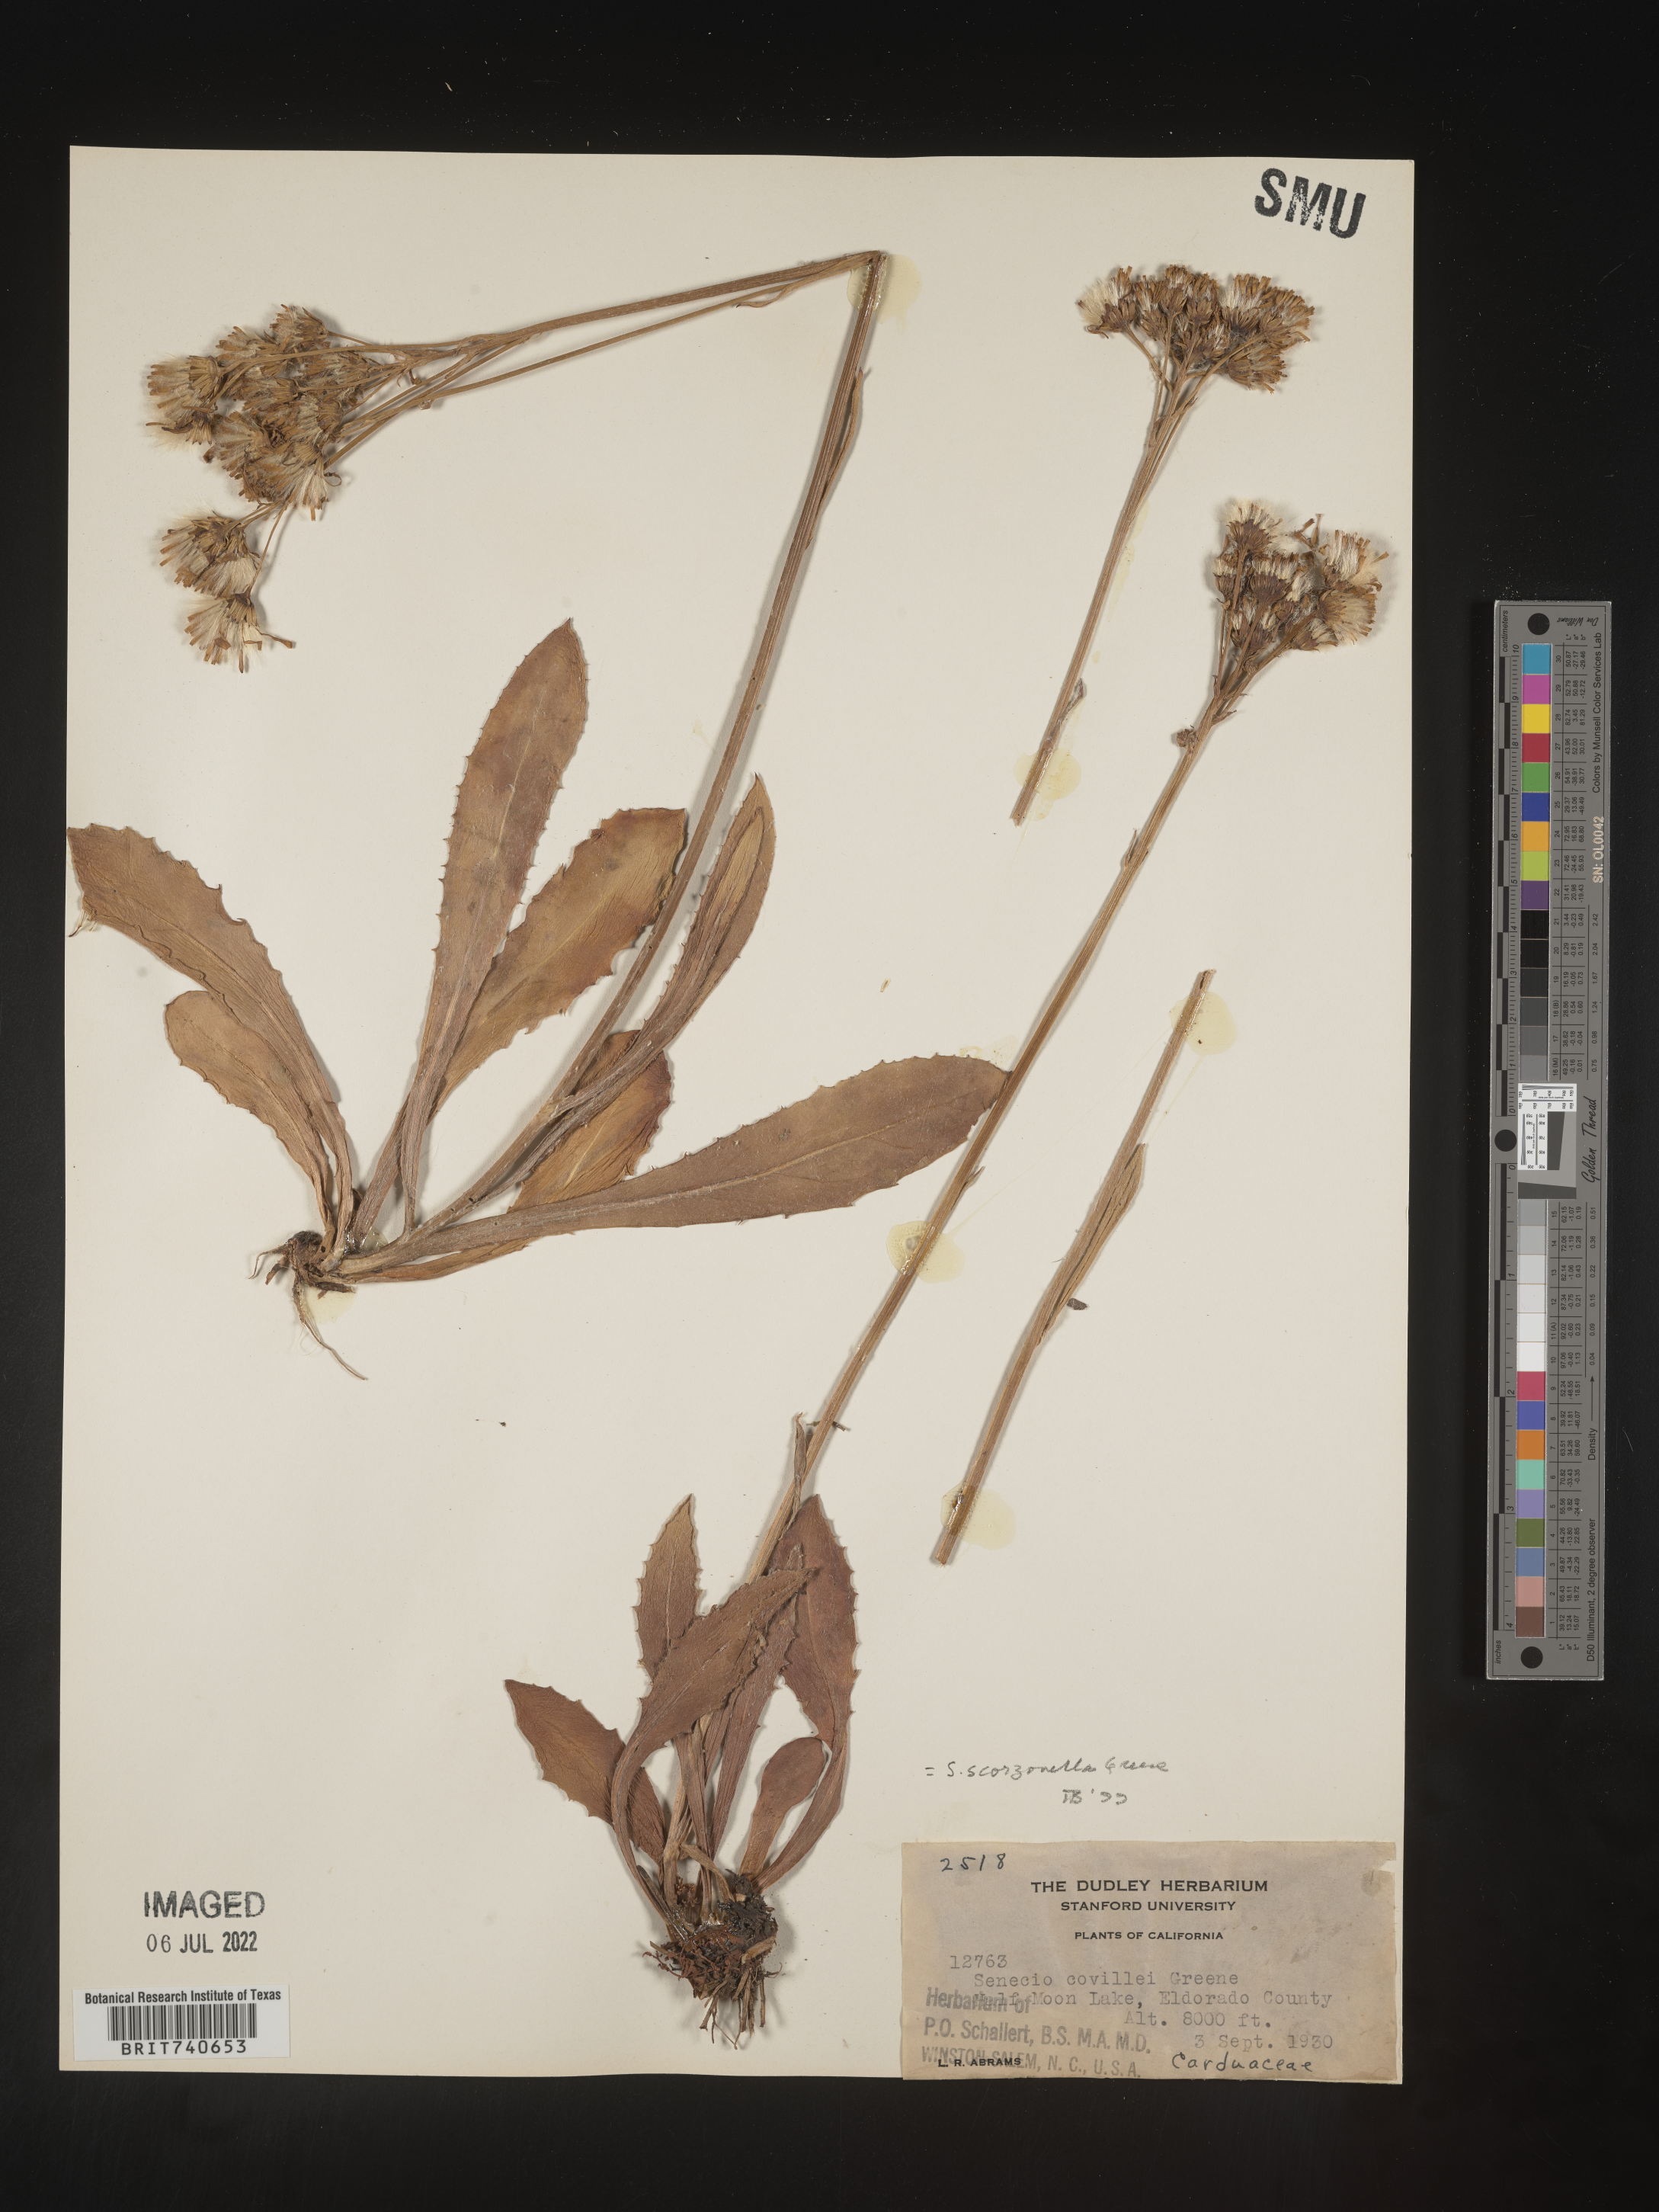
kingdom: Plantae
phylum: Tracheophyta
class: Magnoliopsida
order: Asterales
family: Asteraceae
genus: Senecio
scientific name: Senecio scorzonella
